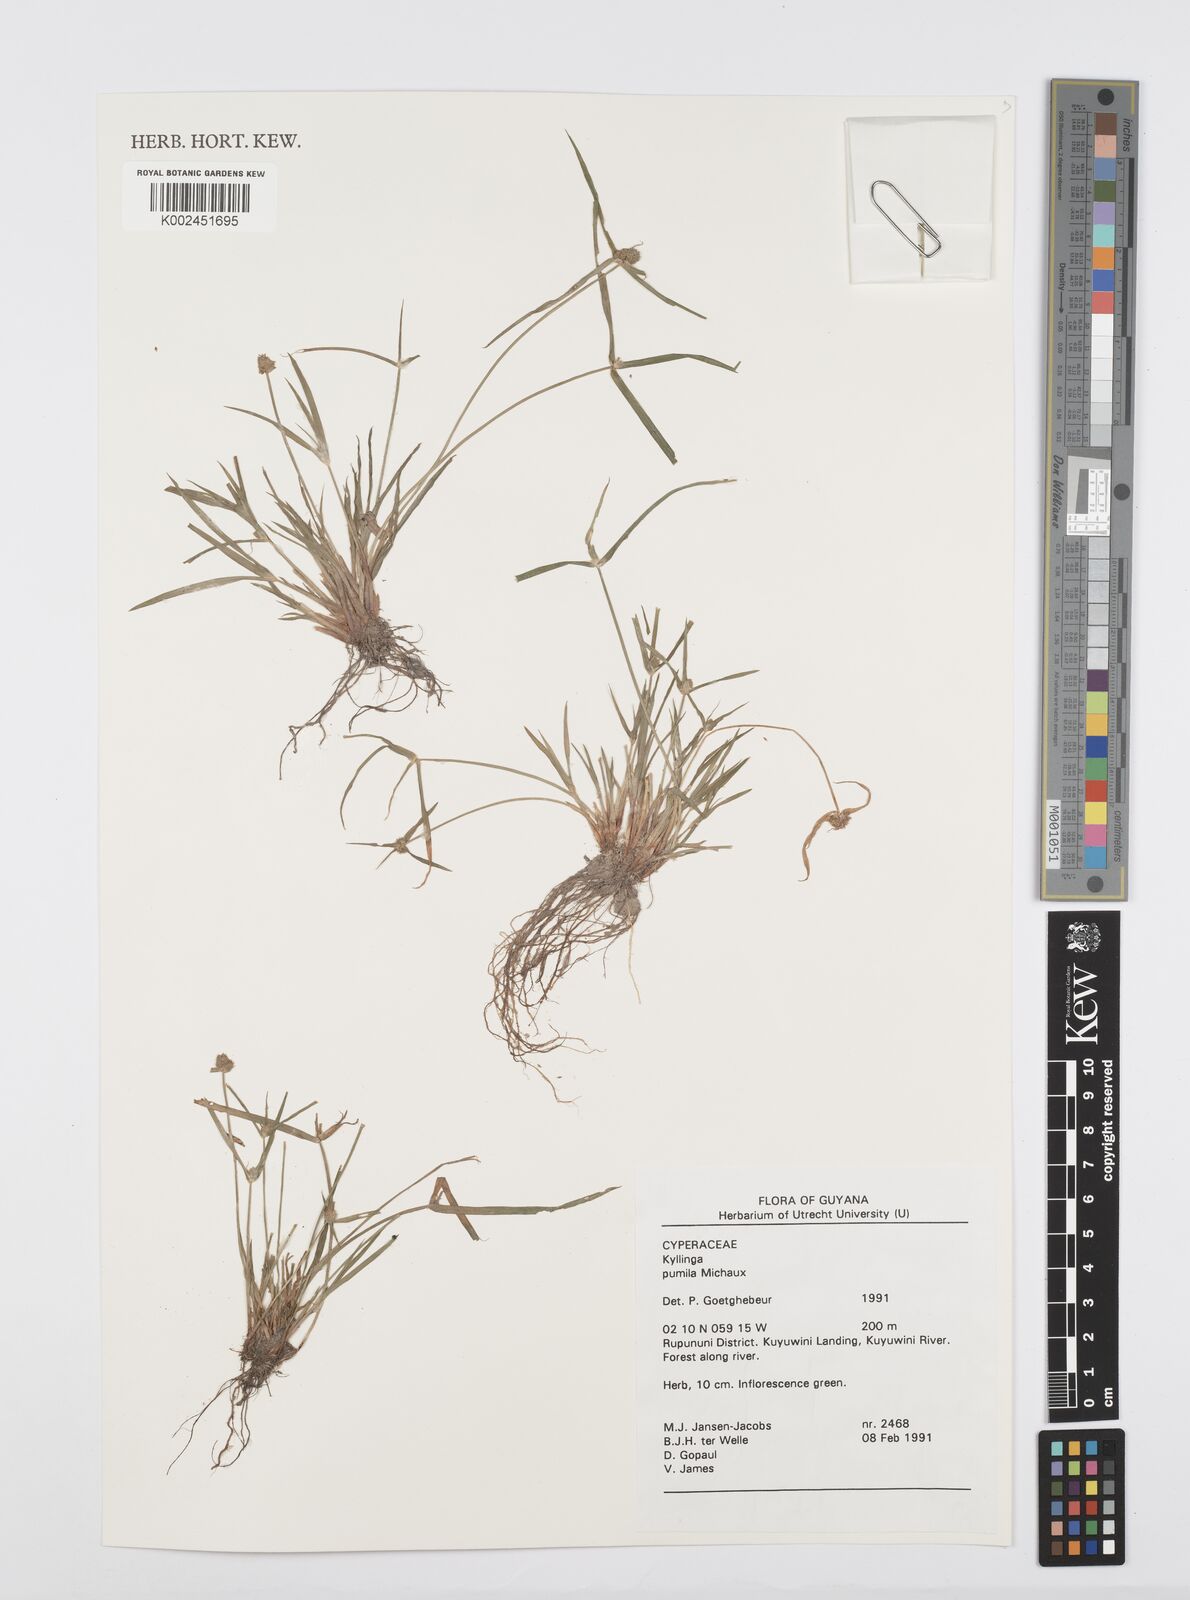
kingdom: Plantae
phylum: Tracheophyta
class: Liliopsida
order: Poales
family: Cyperaceae
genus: Cyperus
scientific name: Cyperus
